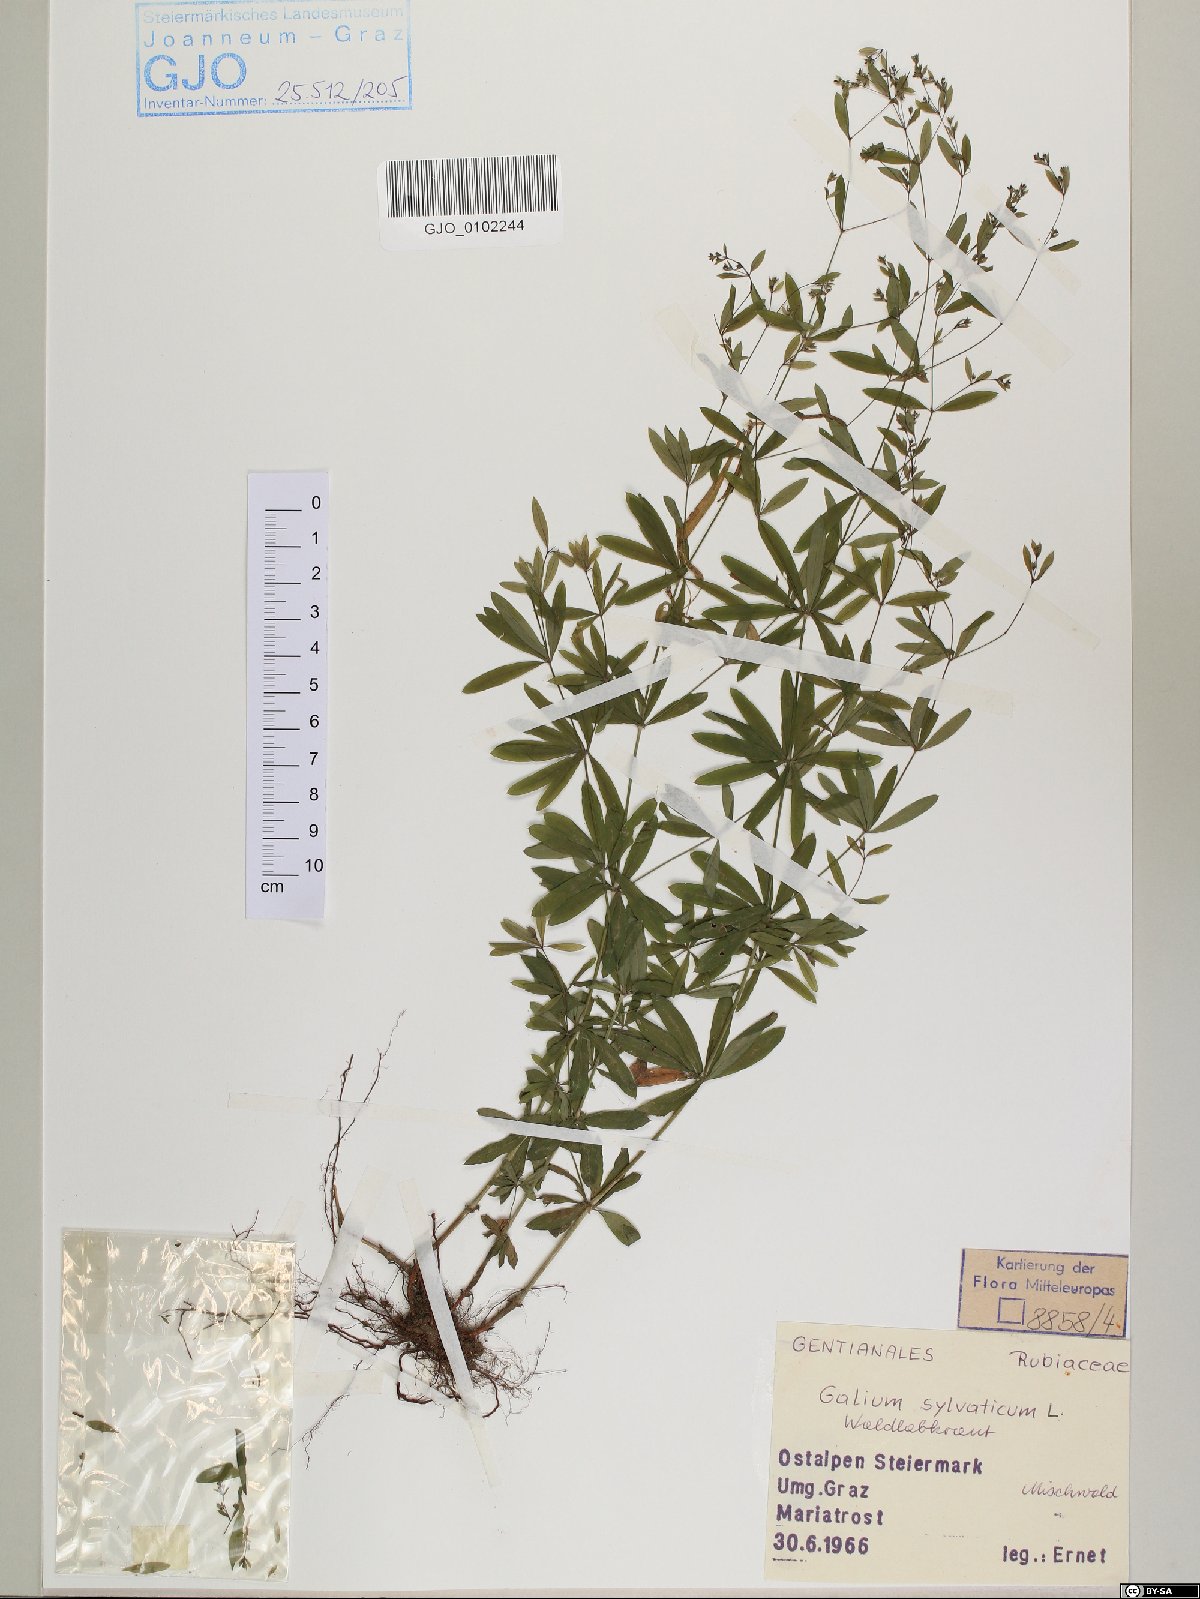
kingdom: Plantae
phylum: Tracheophyta
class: Magnoliopsida
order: Gentianales
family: Rubiaceae
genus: Galium
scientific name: Galium sylvaticum
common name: Wood bedstraw
